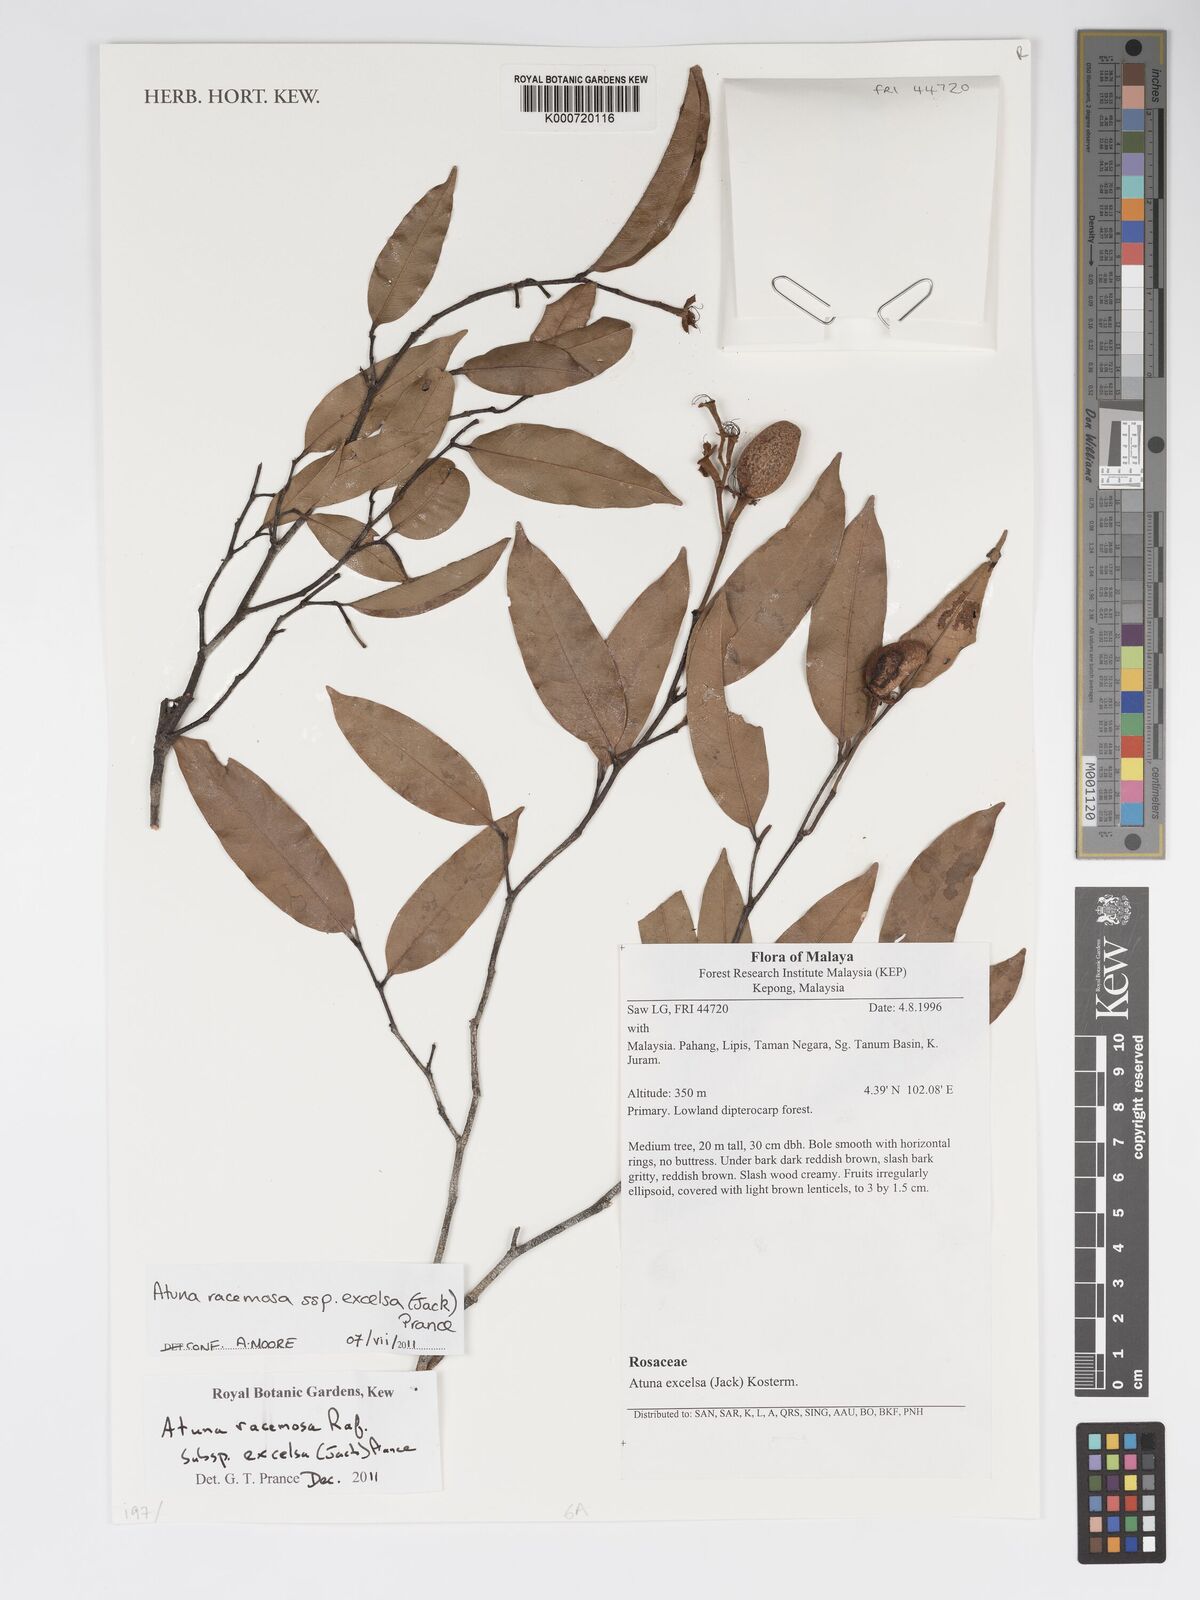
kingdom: Plantae
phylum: Tracheophyta
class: Magnoliopsida
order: Malpighiales
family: Chrysobalanaceae
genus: Atuna
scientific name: Atuna excelsa
